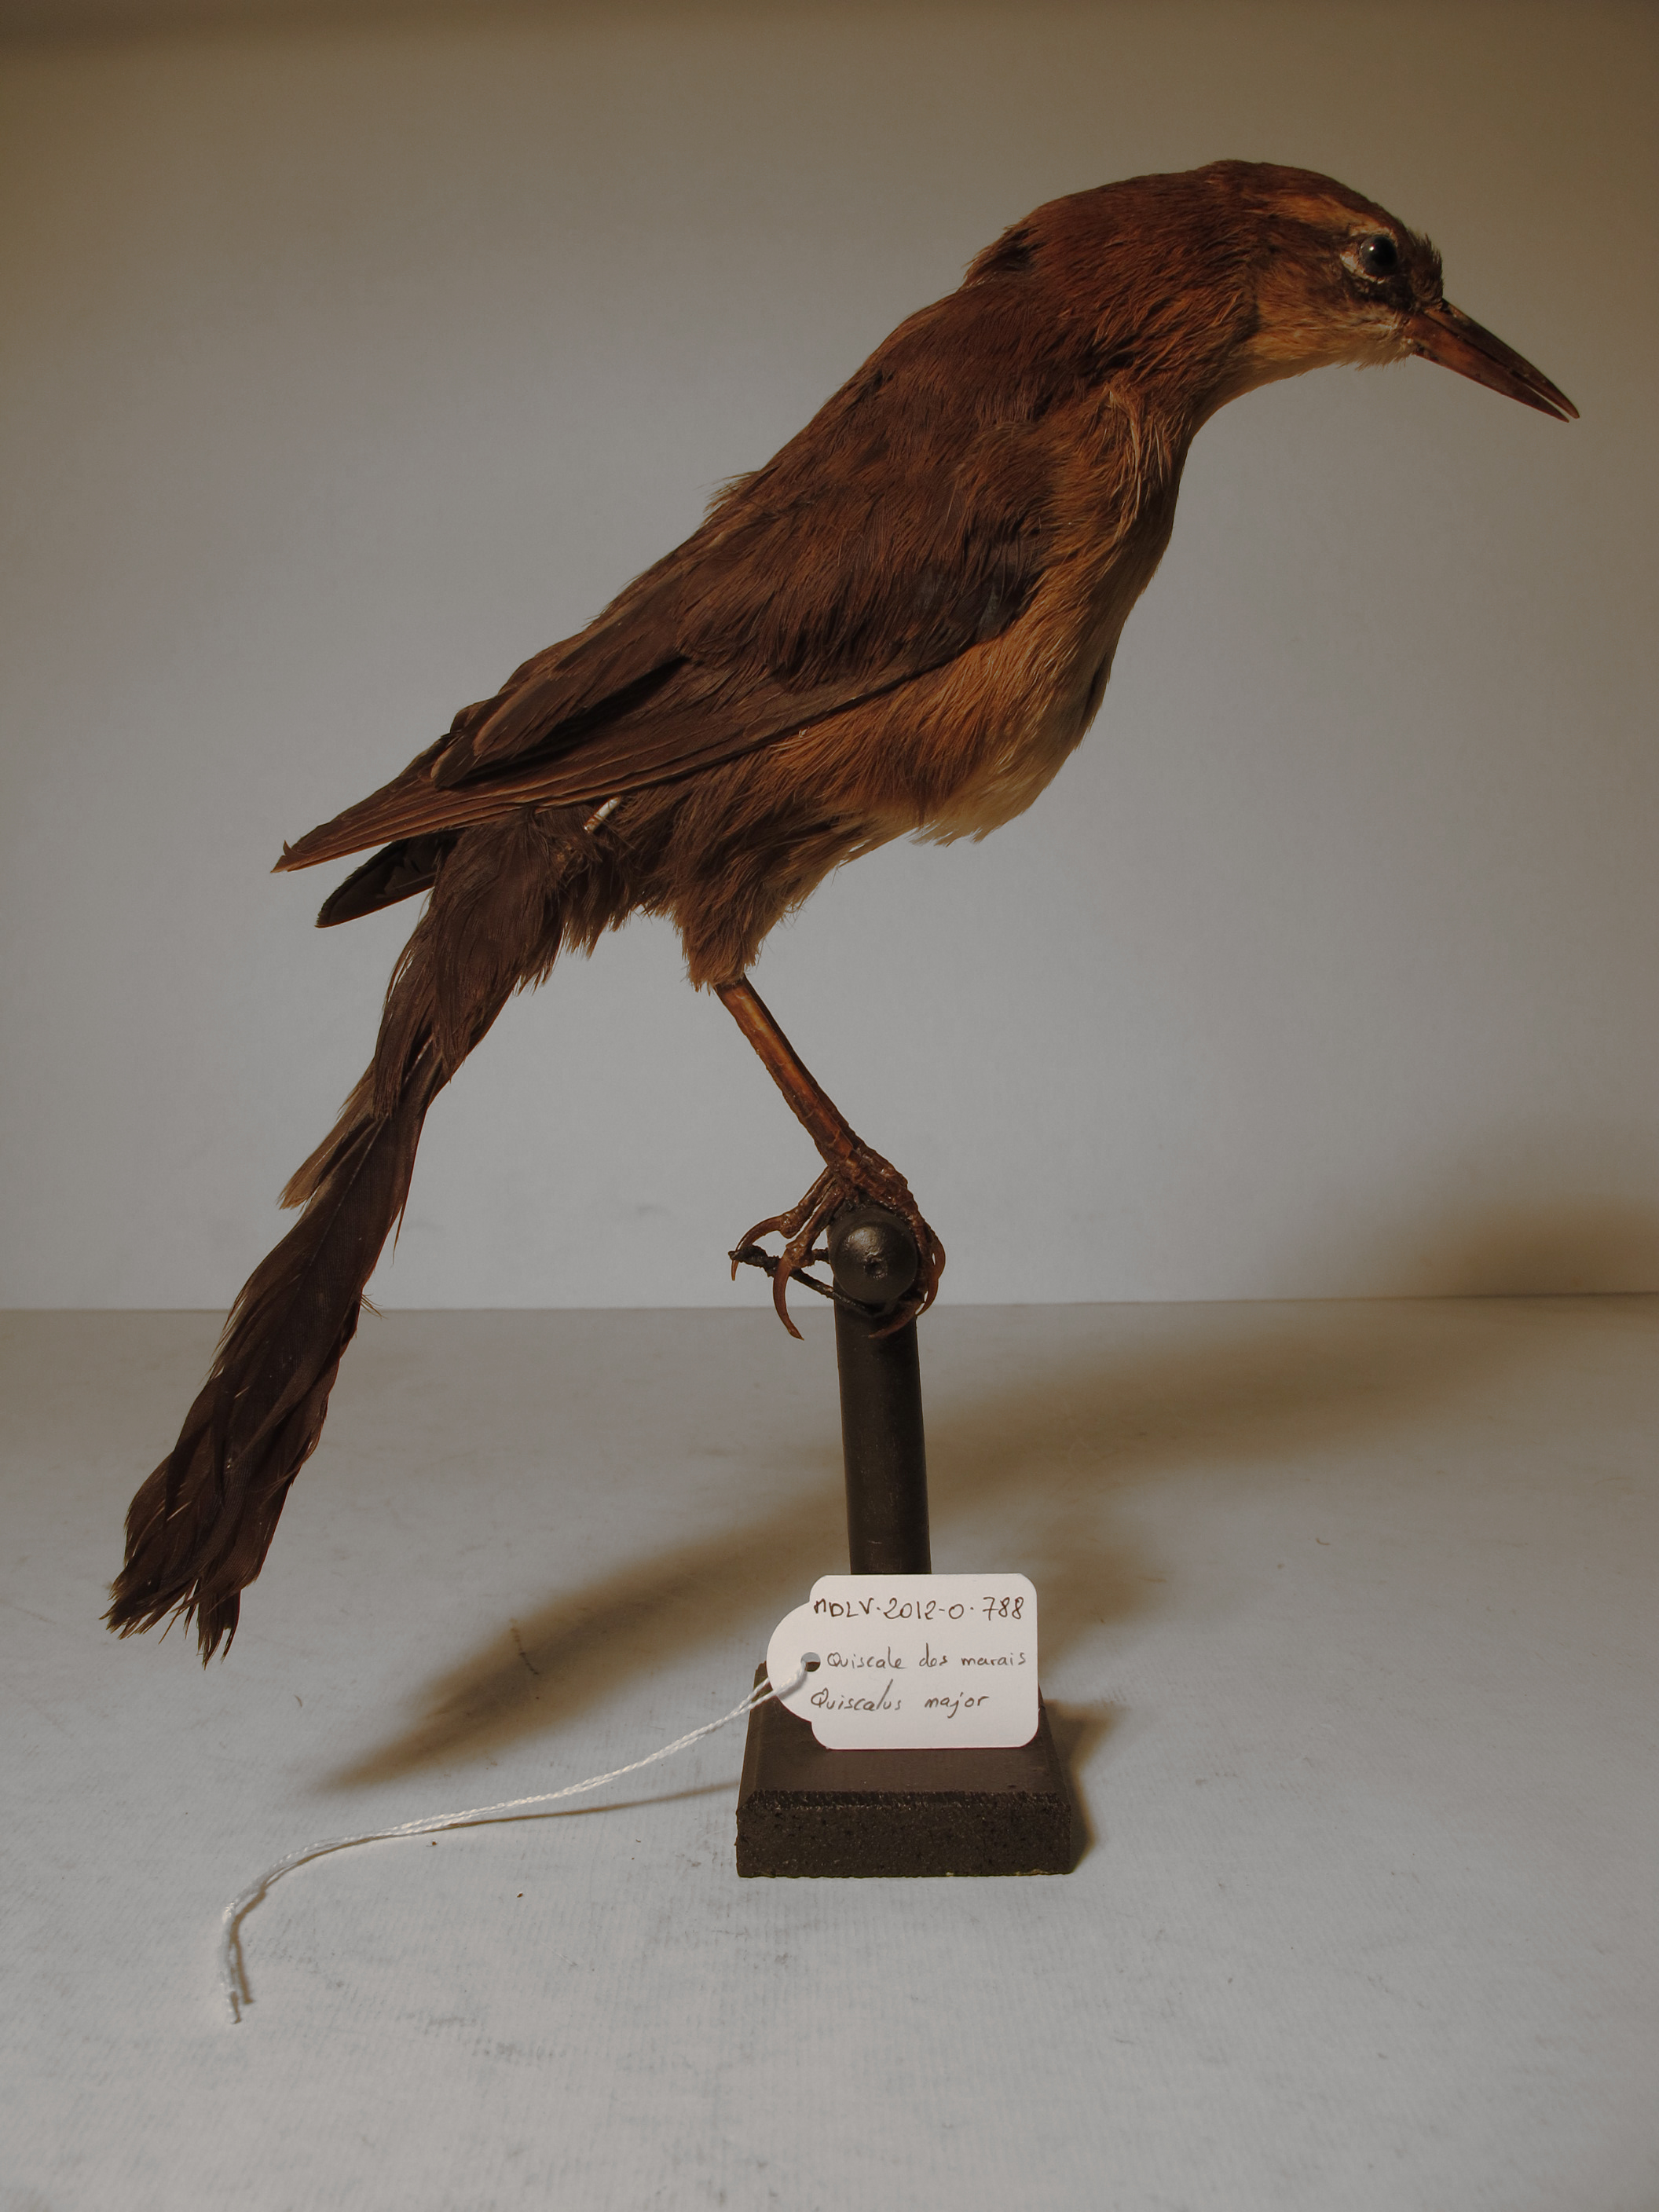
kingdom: Animalia
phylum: Chordata
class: Aves
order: Passeriformes
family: Icteridae
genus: Quiscalus
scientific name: Quiscalus major
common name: Boat-tailed Grackle
